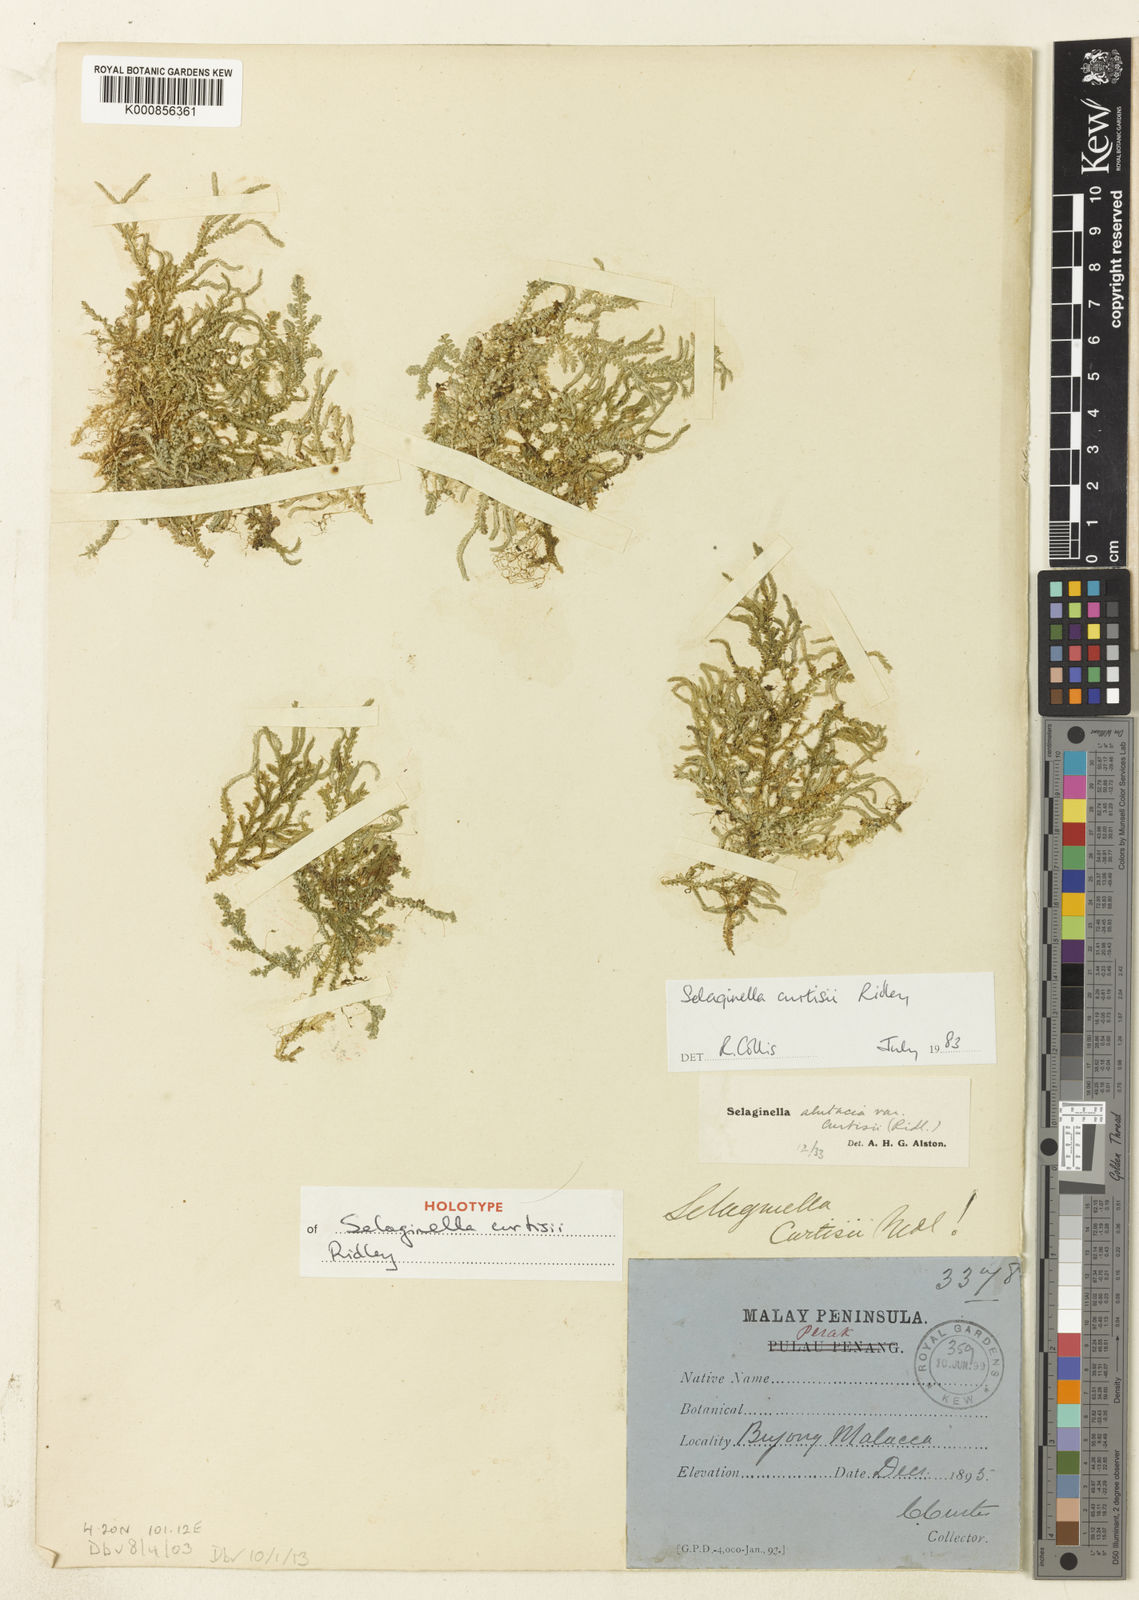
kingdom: Plantae
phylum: Tracheophyta
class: Lycopodiopsida
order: Selaginellales
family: Selaginellaceae
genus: Selaginella
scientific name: Selaginella curtisii
